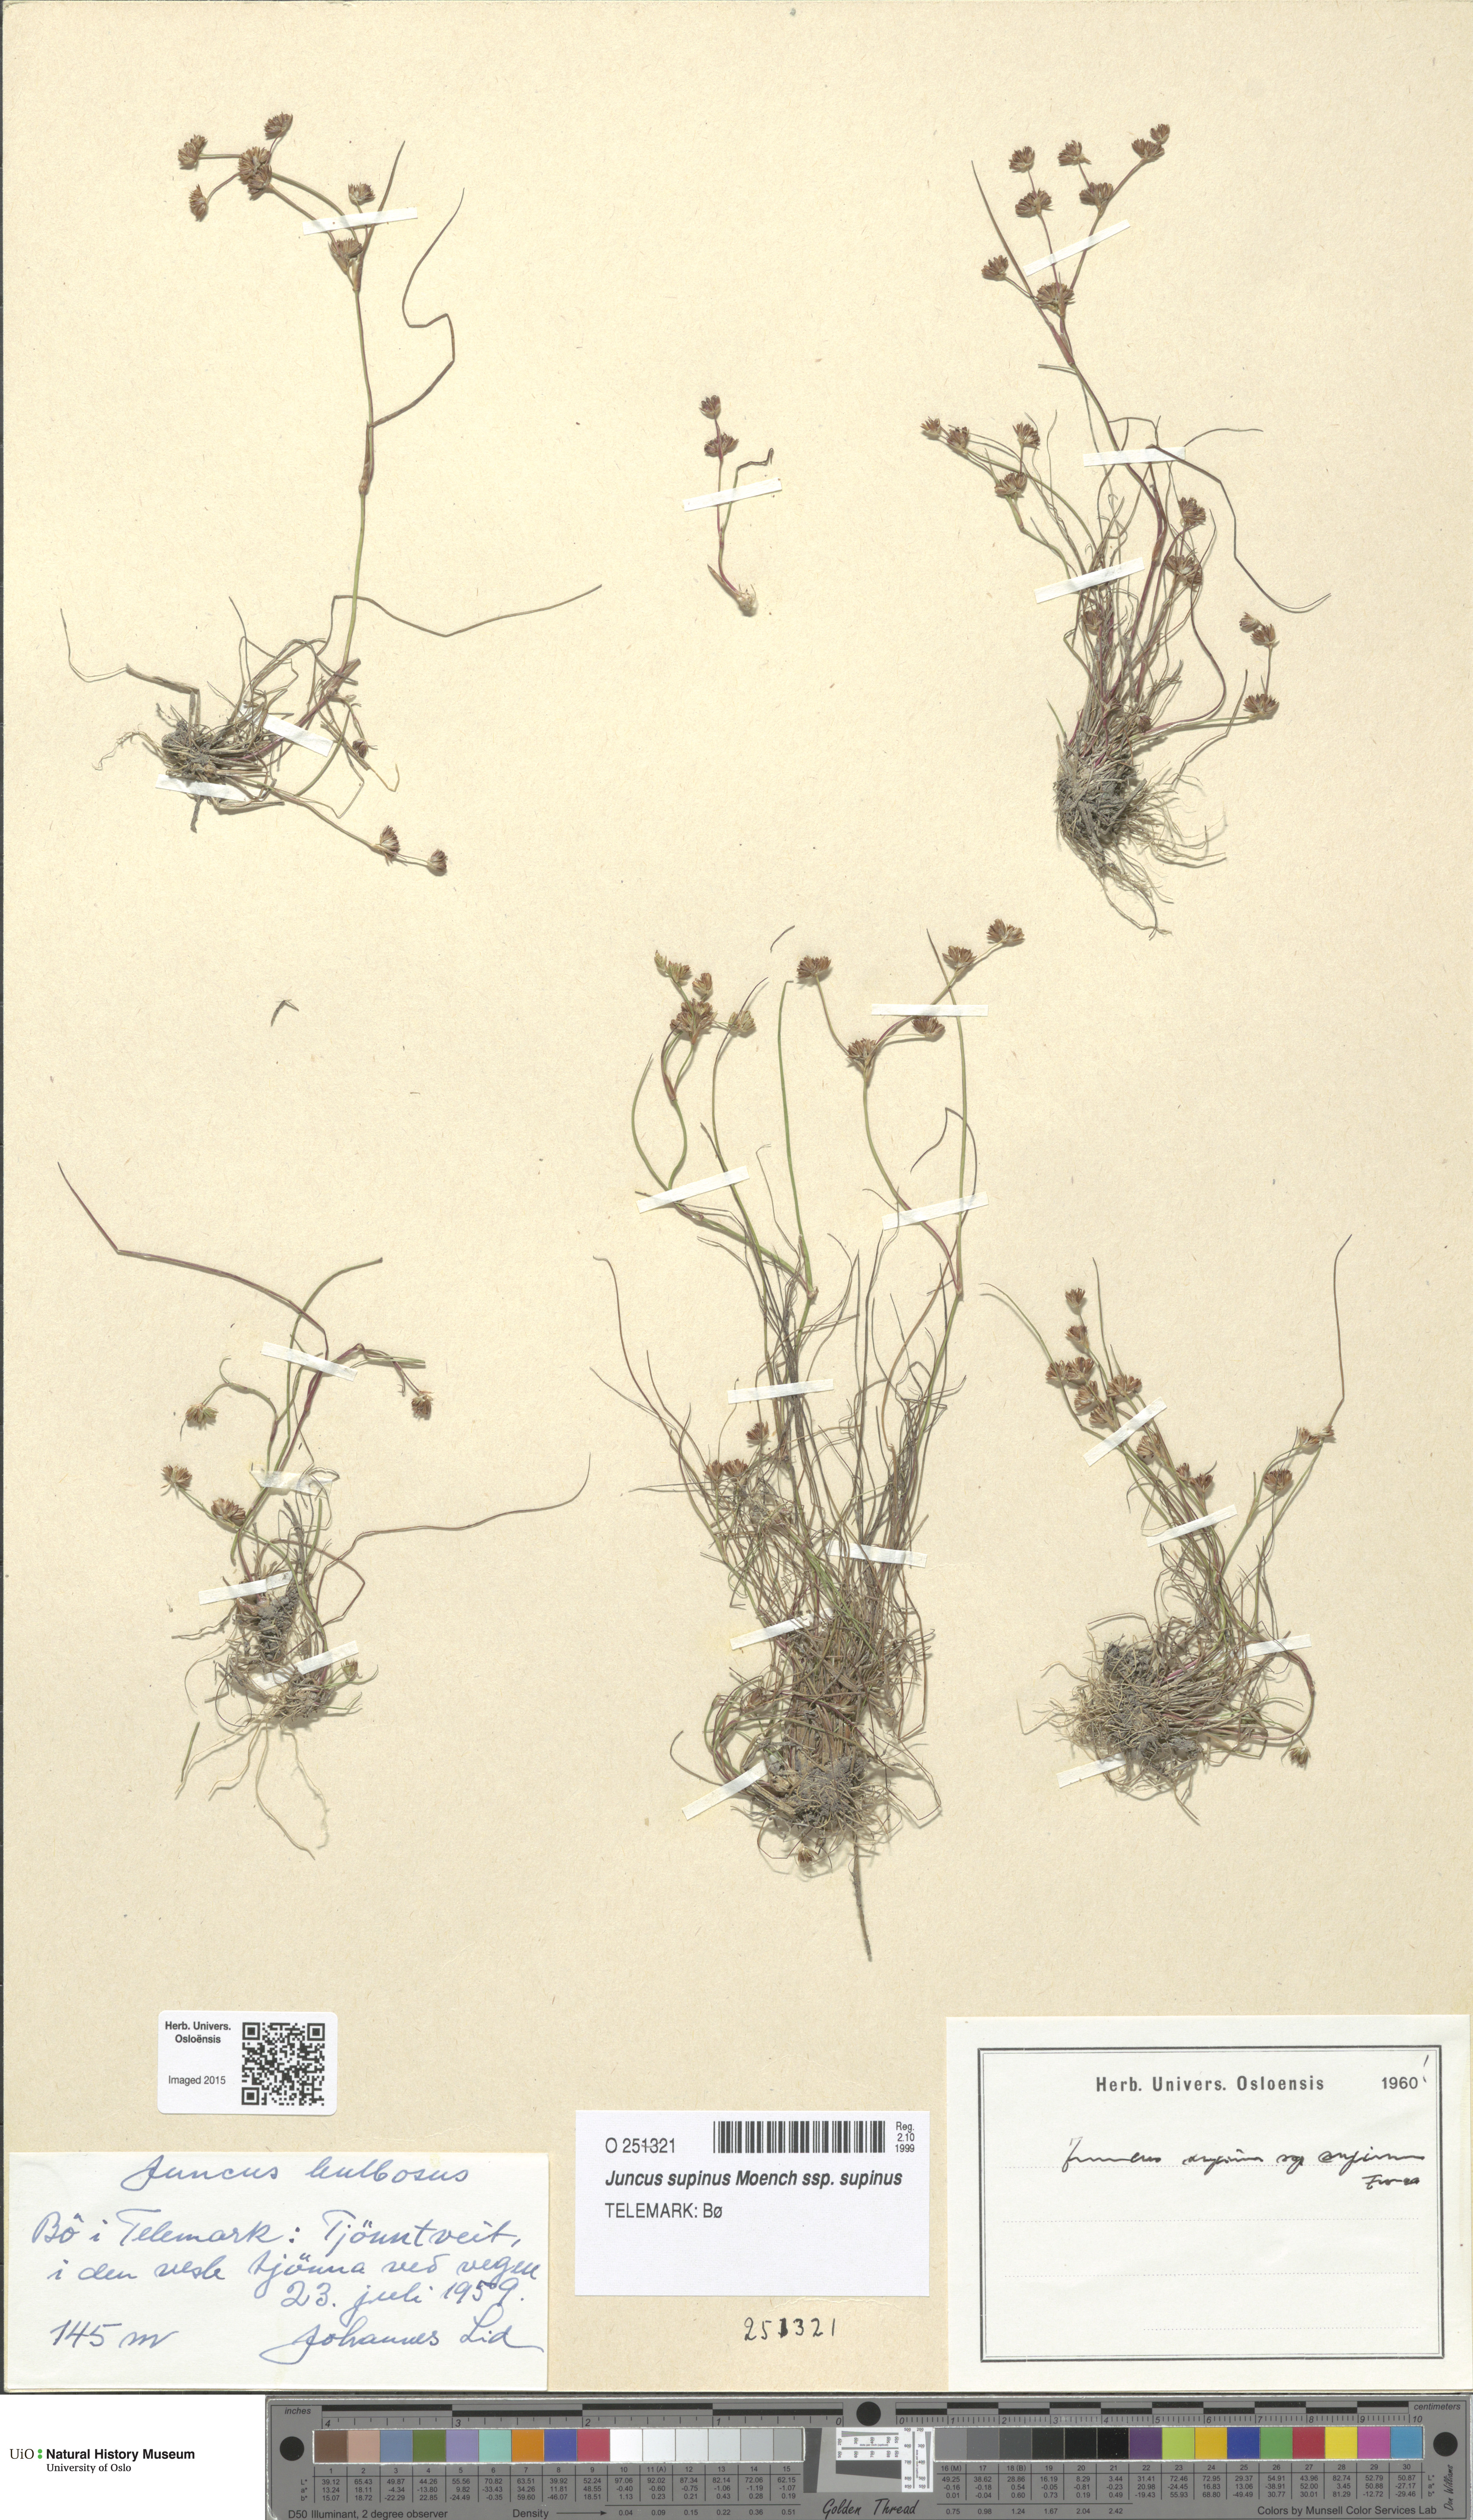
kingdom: Plantae
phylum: Tracheophyta
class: Liliopsida
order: Poales
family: Juncaceae
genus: Juncus
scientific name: Juncus bulbosus
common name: Bulbous rush
